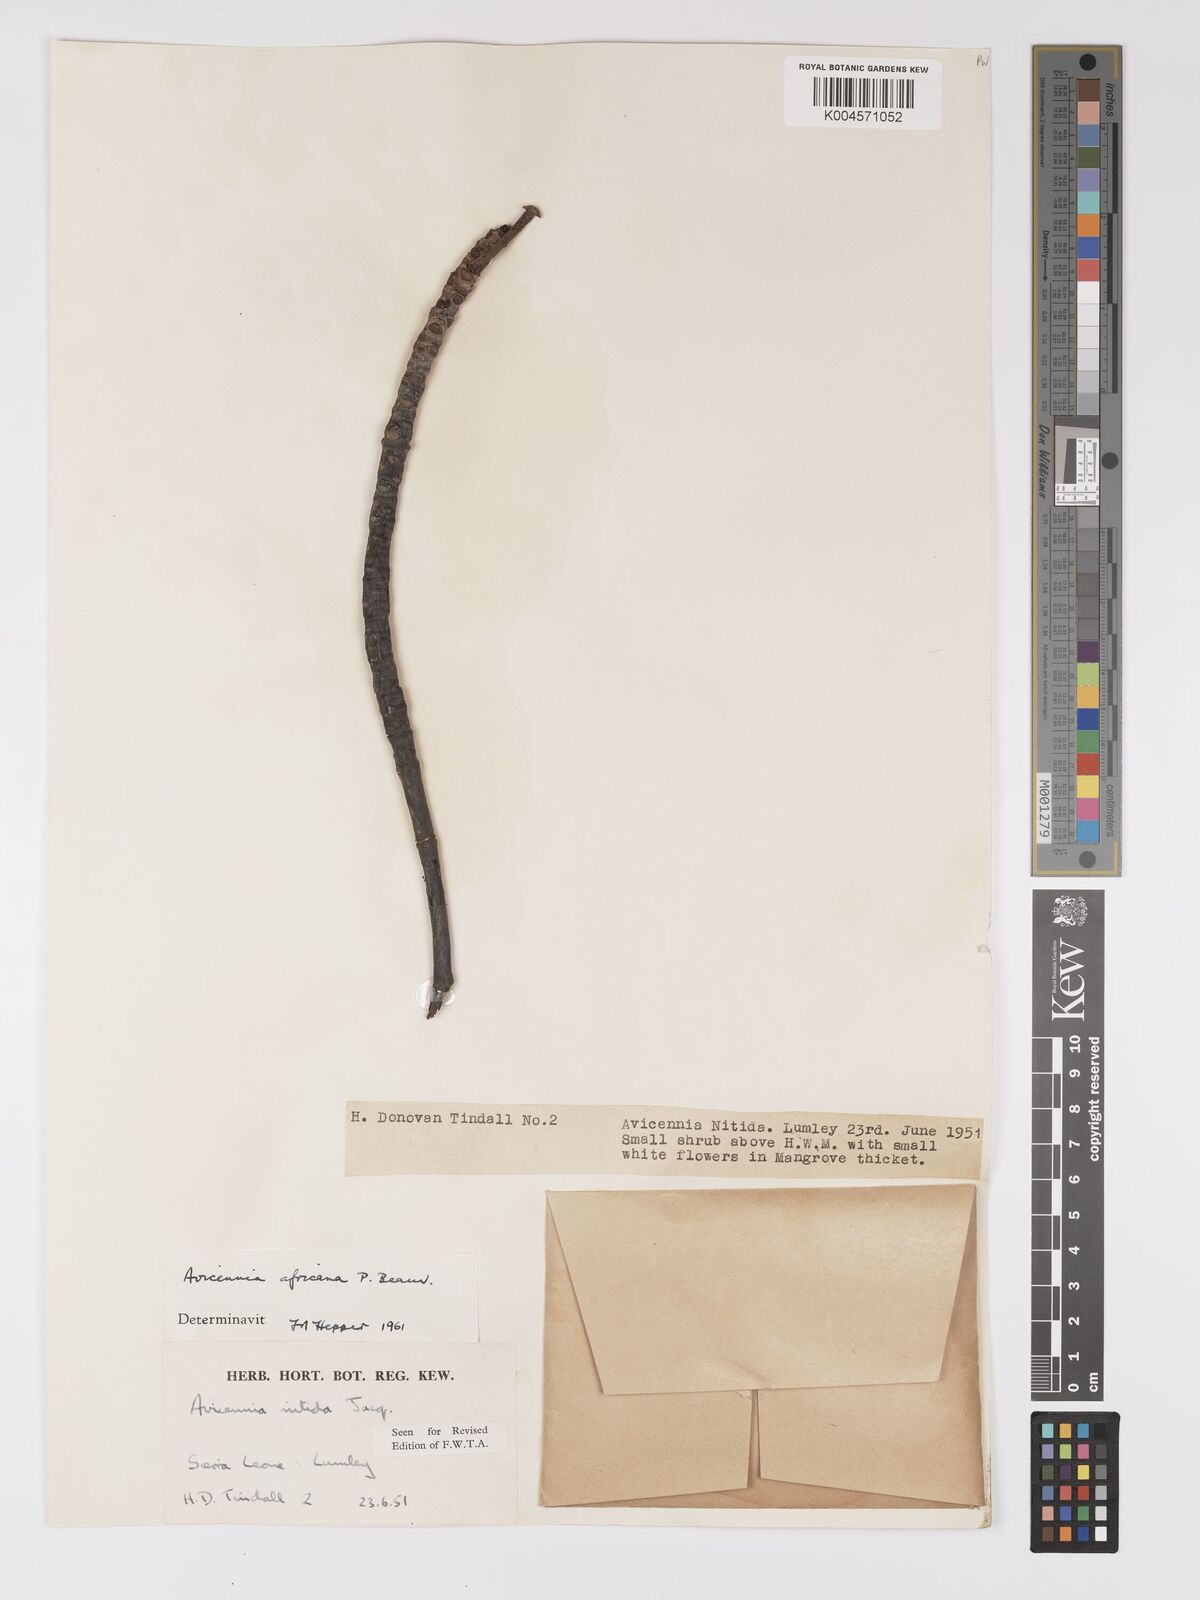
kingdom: Plantae
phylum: Tracheophyta
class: Magnoliopsida
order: Lamiales
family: Acanthaceae
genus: Avicennia
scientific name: Avicennia germinans
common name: Black mangrove
